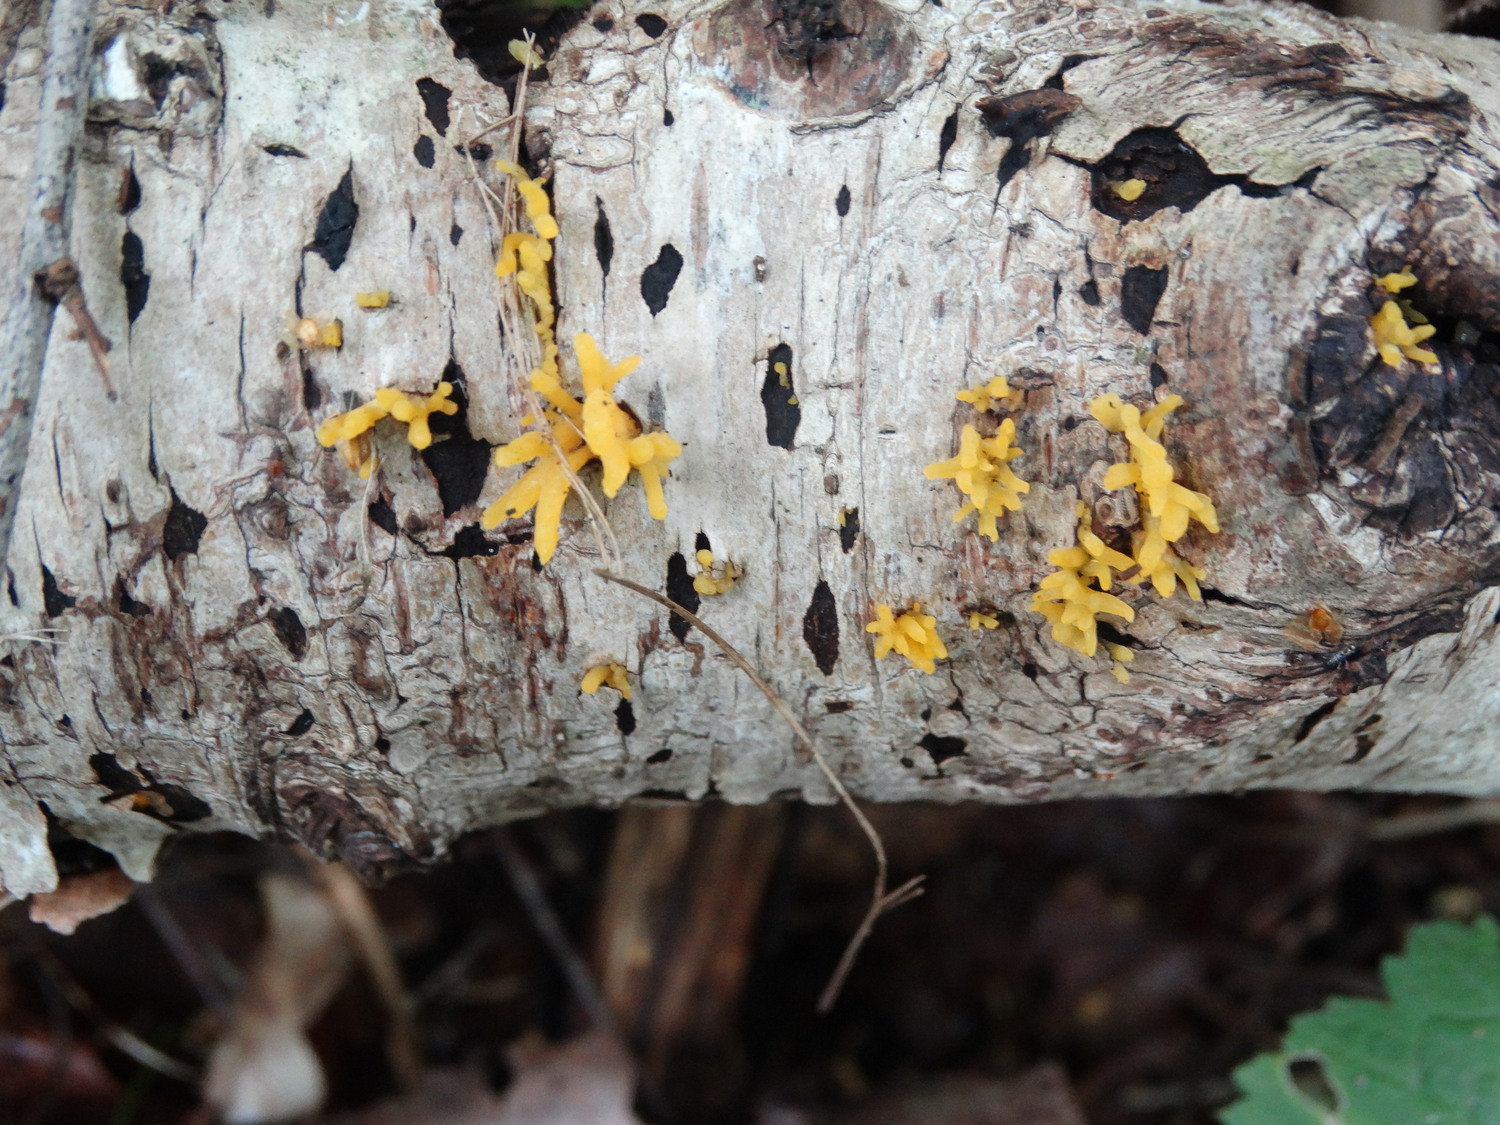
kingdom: Fungi
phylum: Basidiomycota
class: Dacrymycetes
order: Dacrymycetales
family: Dacrymycetaceae
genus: Calocera
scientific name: Calocera cornea
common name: liden guldgaffel
